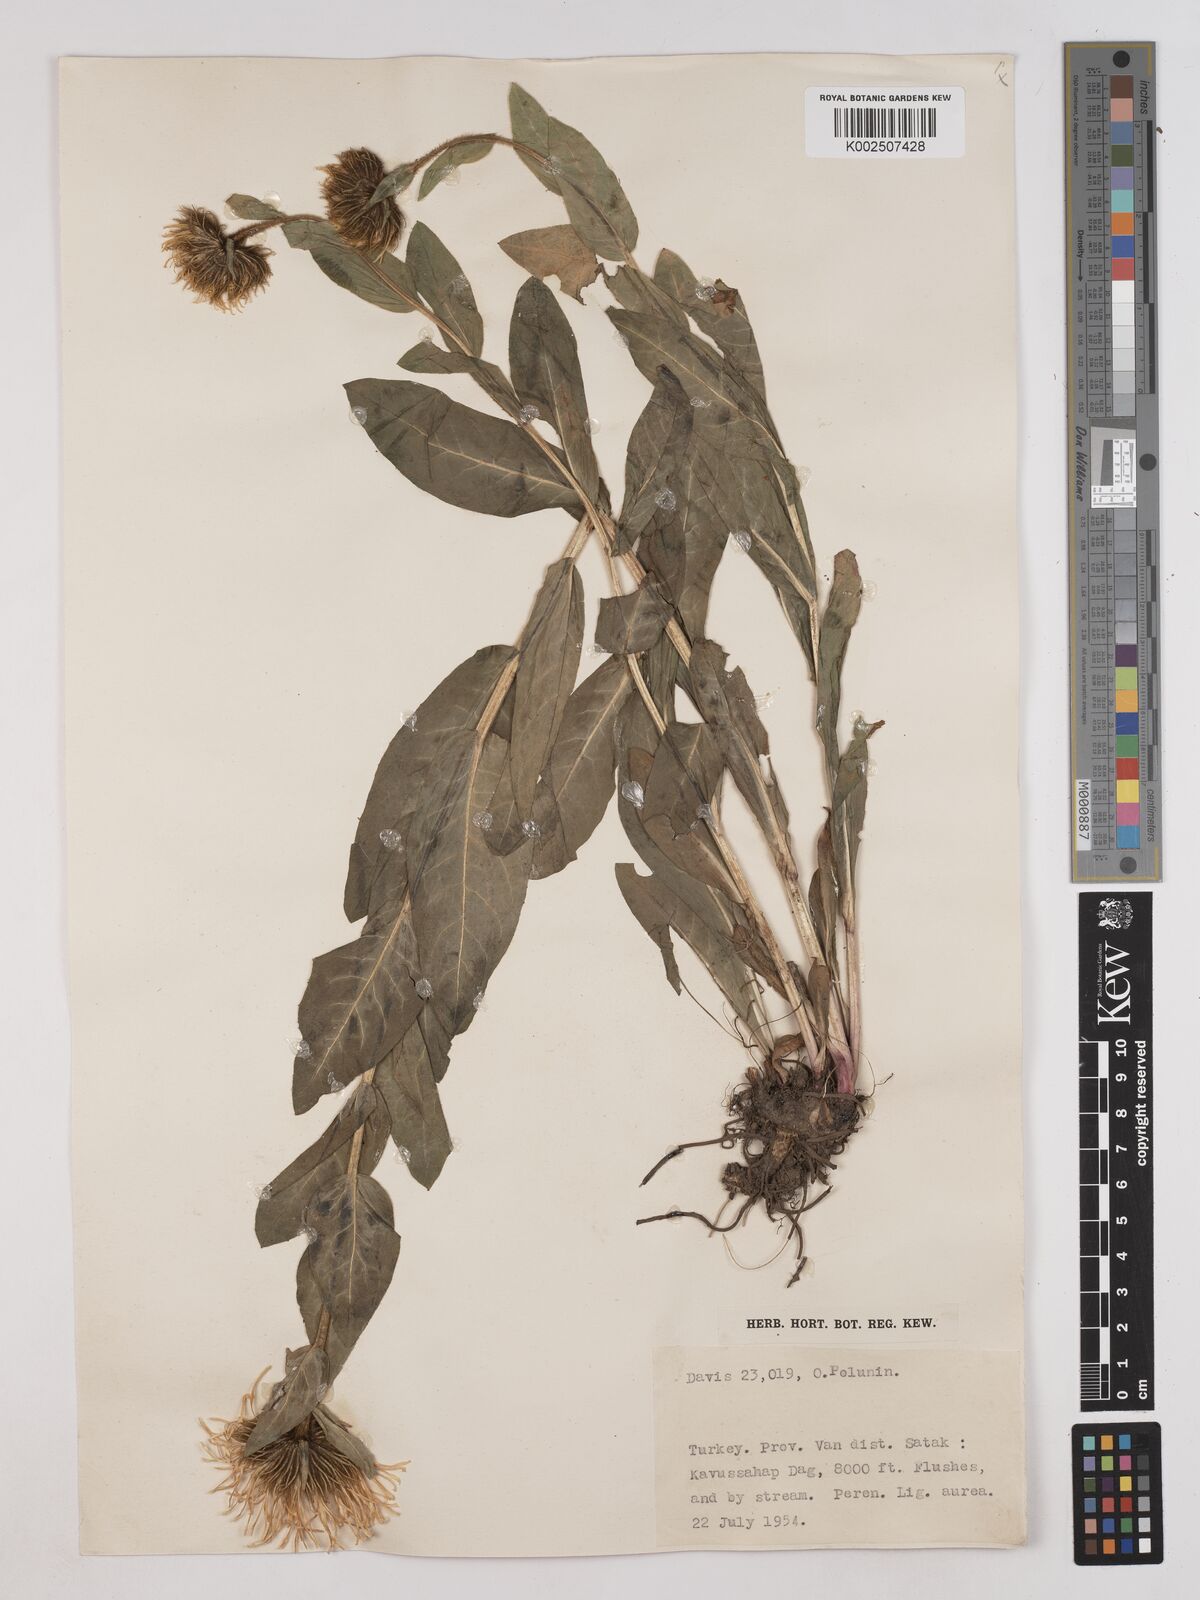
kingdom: Plantae
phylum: Tracheophyta
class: Magnoliopsida
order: Asterales
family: Asteraceae
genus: Pentanema
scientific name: Pentanema orientale
